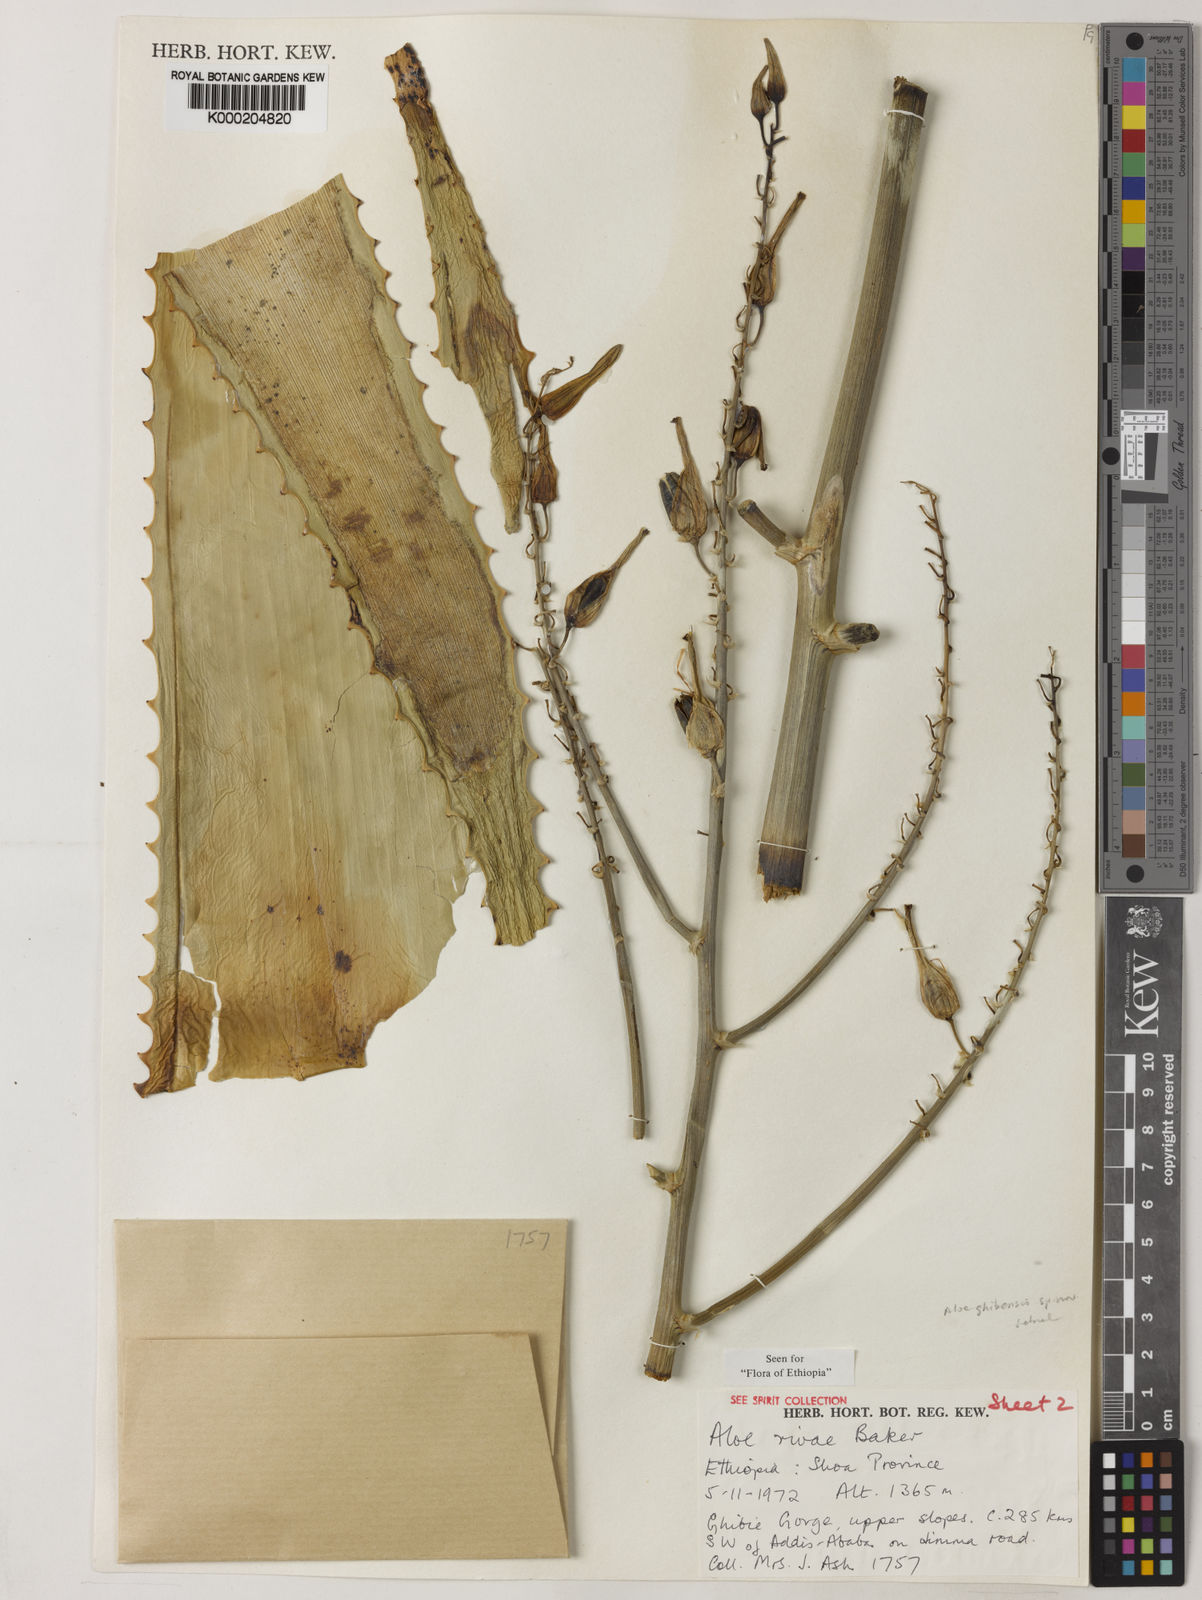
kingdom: Plantae
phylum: Tracheophyta
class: Liliopsida
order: Asparagales
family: Asphodelaceae
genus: Aloe
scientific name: Aloe ghibensis
